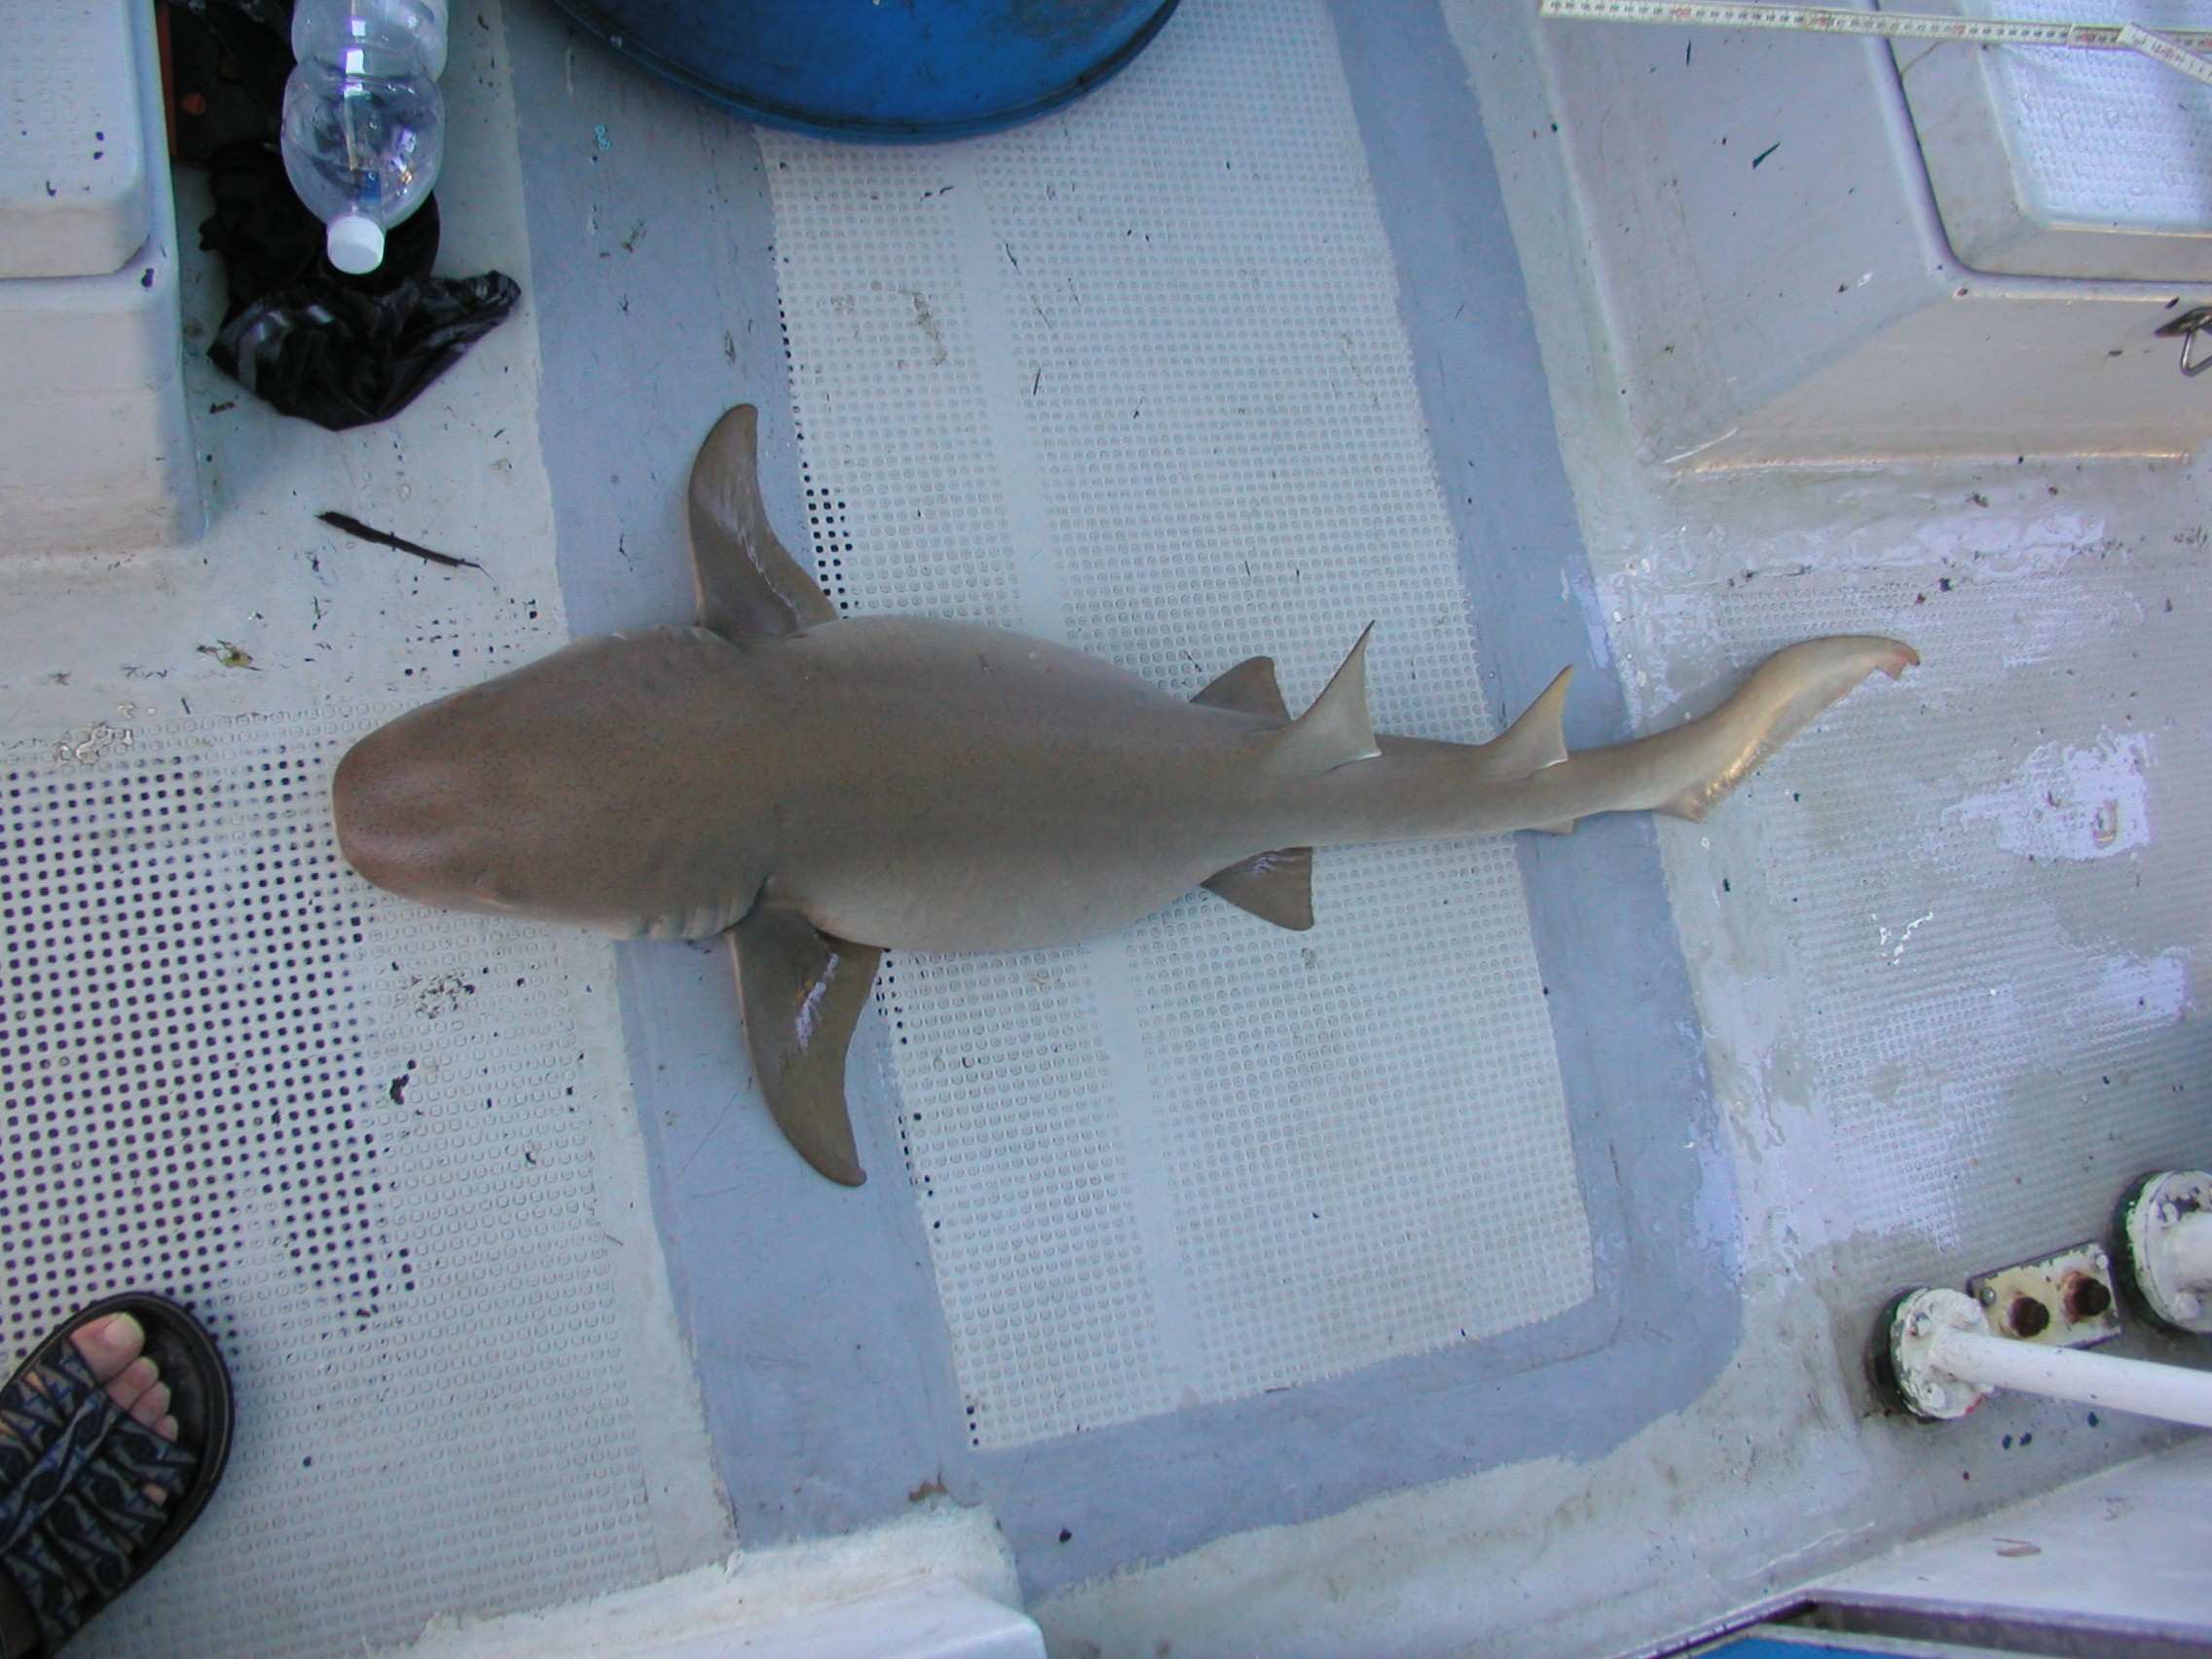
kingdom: Animalia
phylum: Chordata
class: Elasmobranchii
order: Orectolobiformes
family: Ginglymostomatidae
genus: Nebrius
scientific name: Nebrius ferrugineus
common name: Tawny nurse shark
